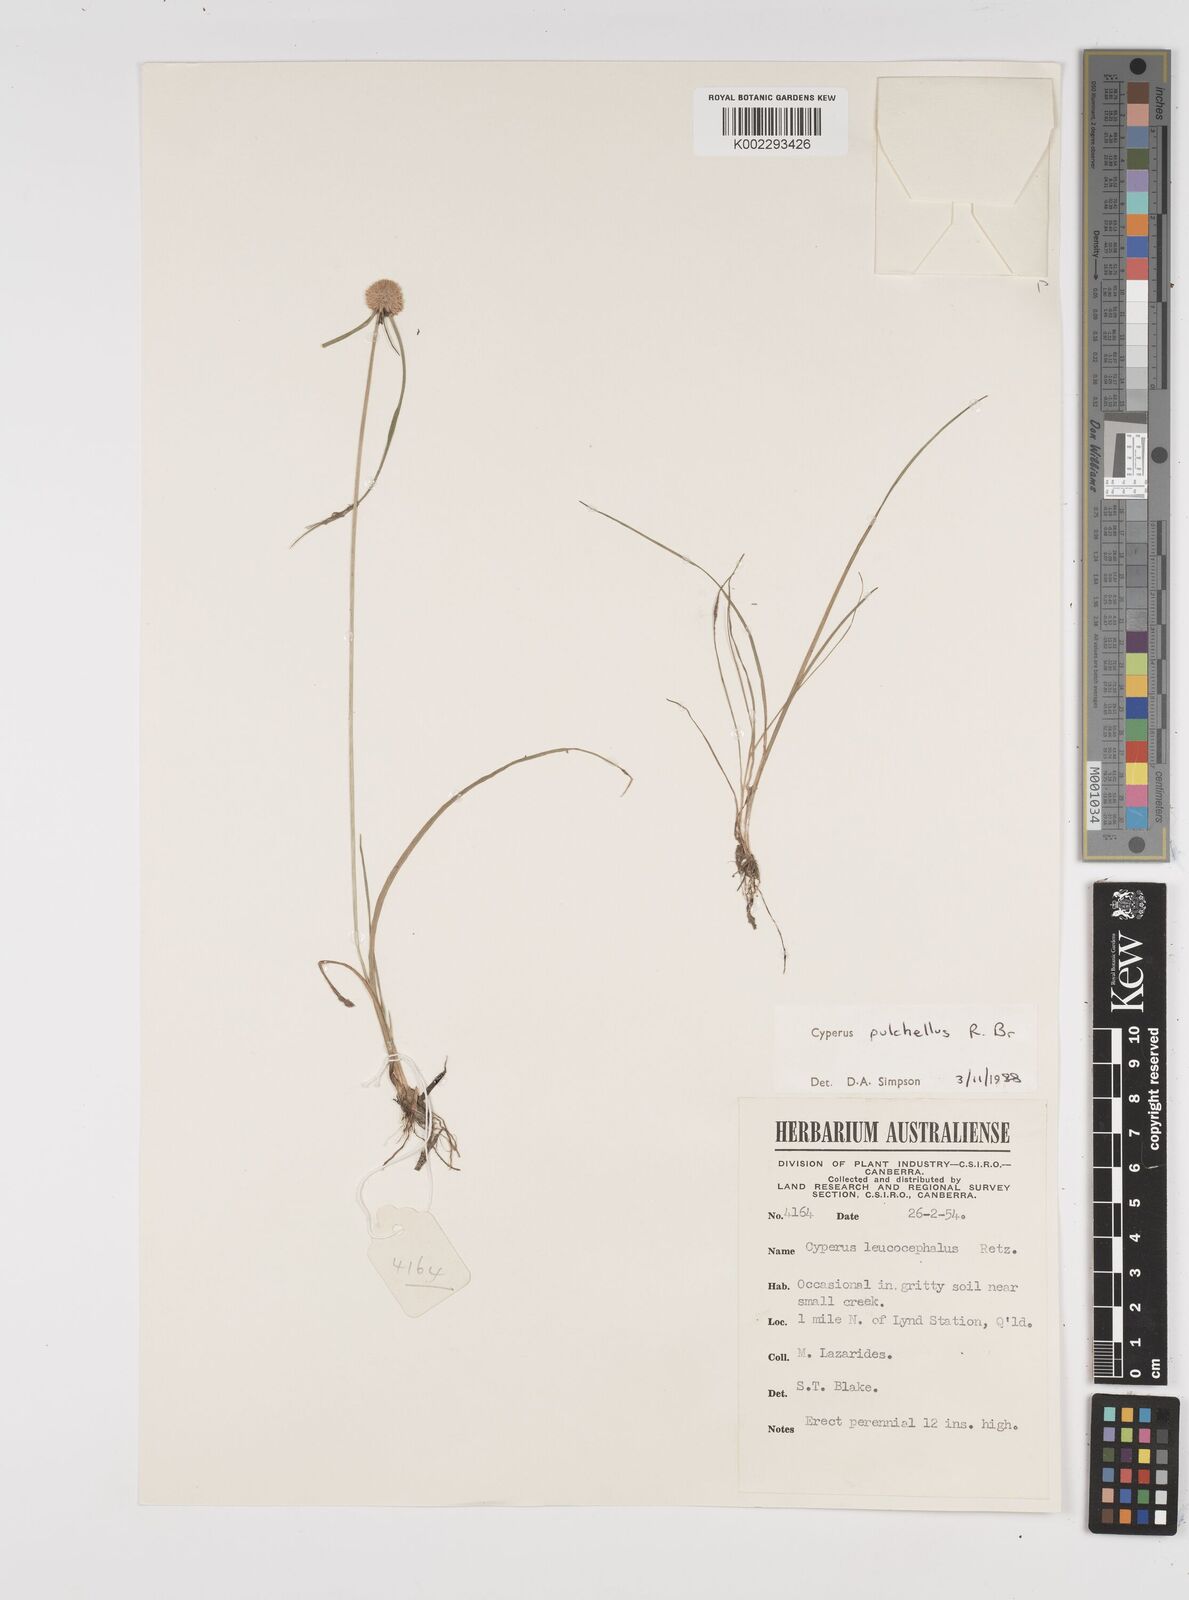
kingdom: Plantae
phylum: Tracheophyta
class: Liliopsida
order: Poales
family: Cyperaceae
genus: Cyperus
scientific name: Cyperus pulchellus
